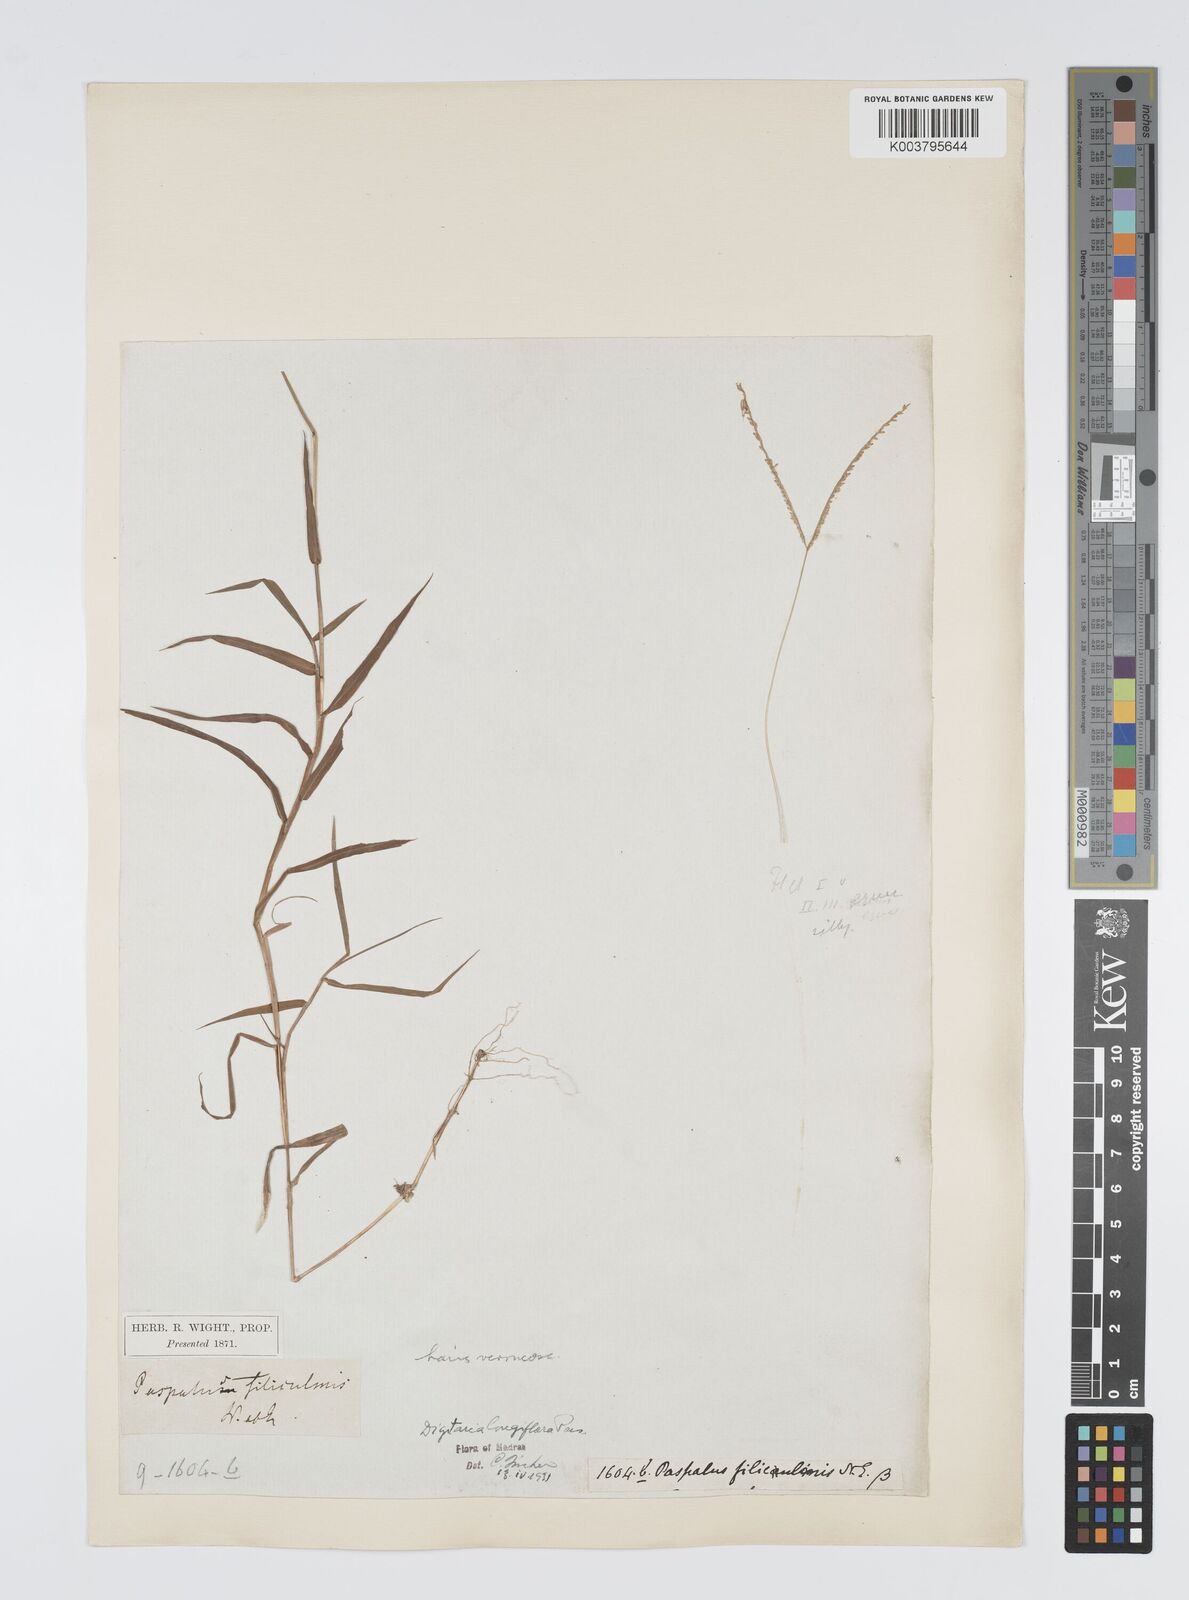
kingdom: Plantae
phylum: Tracheophyta
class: Liliopsida
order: Poales
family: Poaceae
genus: Digitaria
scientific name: Digitaria longiflora
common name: Wire crabgrass
